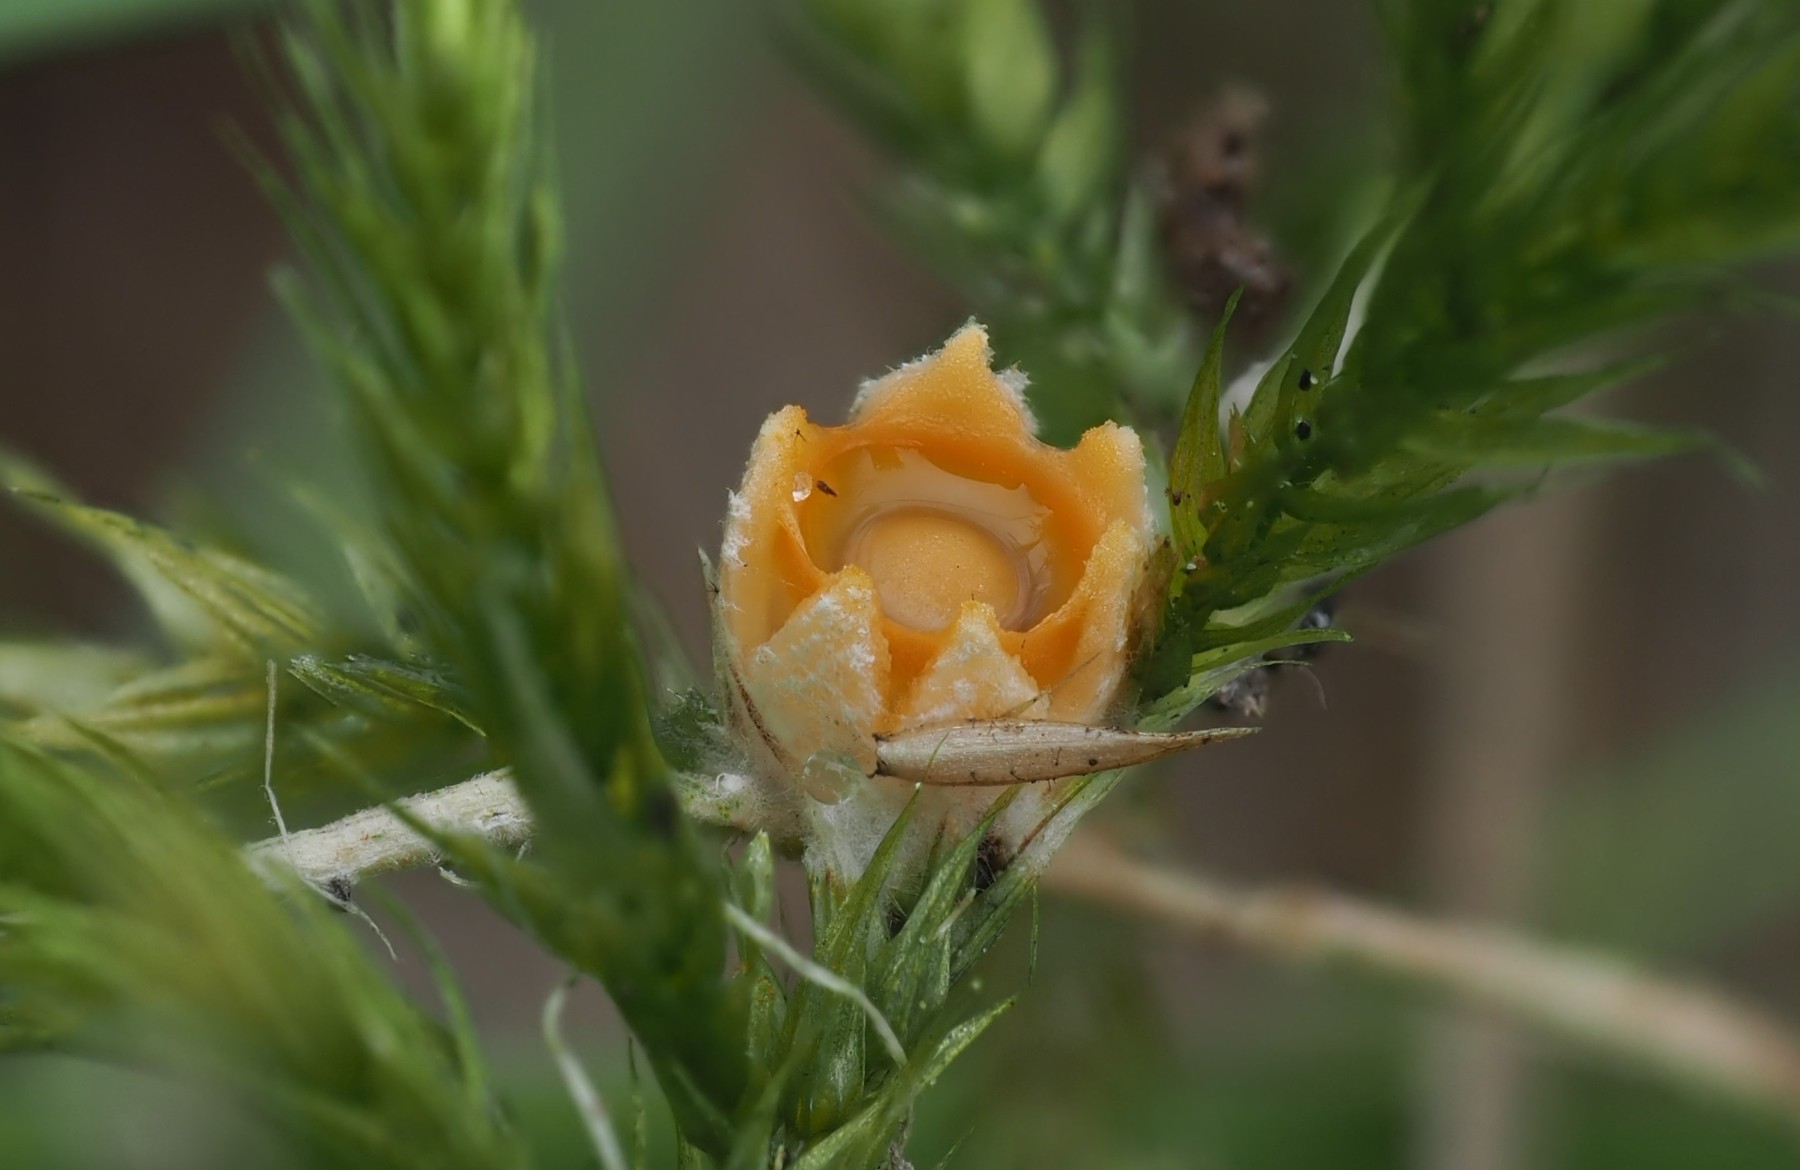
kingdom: Fungi
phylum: Basidiomycota
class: Agaricomycetes
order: Geastrales
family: Geastraceae
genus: Sphaerobolus
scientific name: Sphaerobolus stellatus
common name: bombekaster
